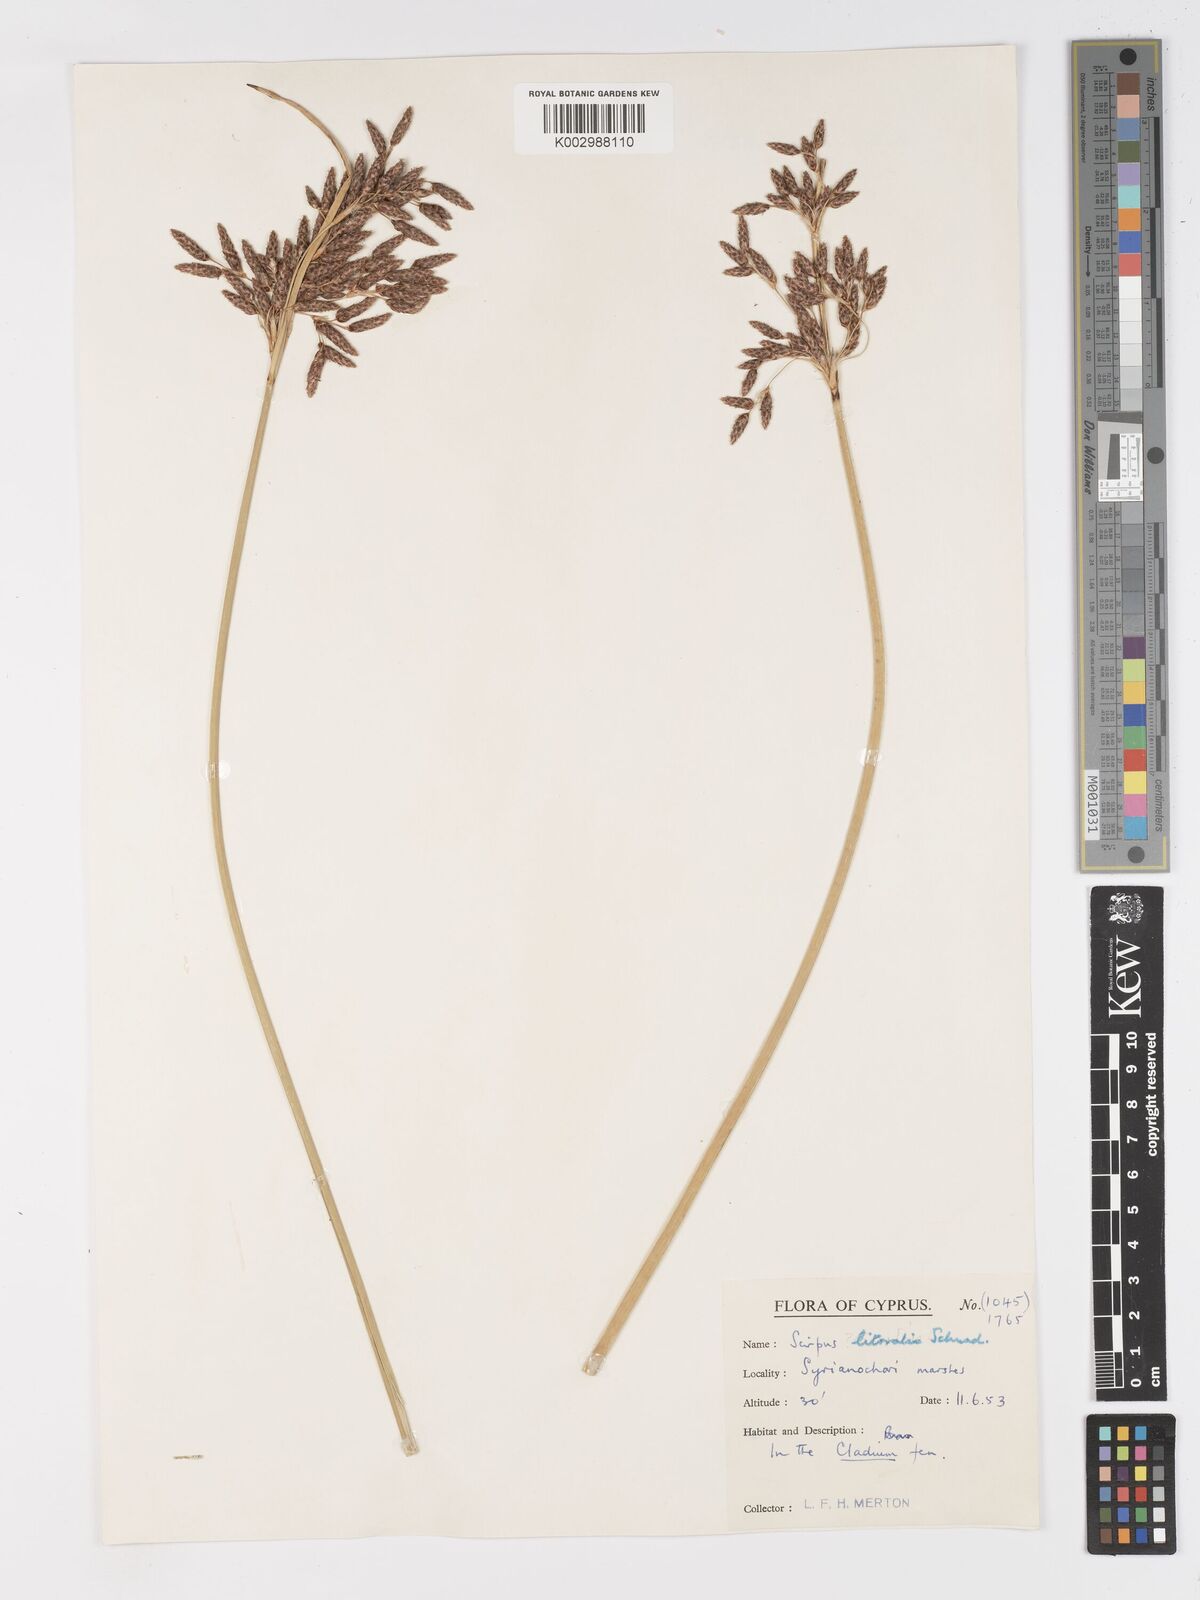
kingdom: Plantae
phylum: Tracheophyta
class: Liliopsida
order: Poales
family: Cyperaceae
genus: Schoenoplectus
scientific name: Schoenoplectus litoralis
